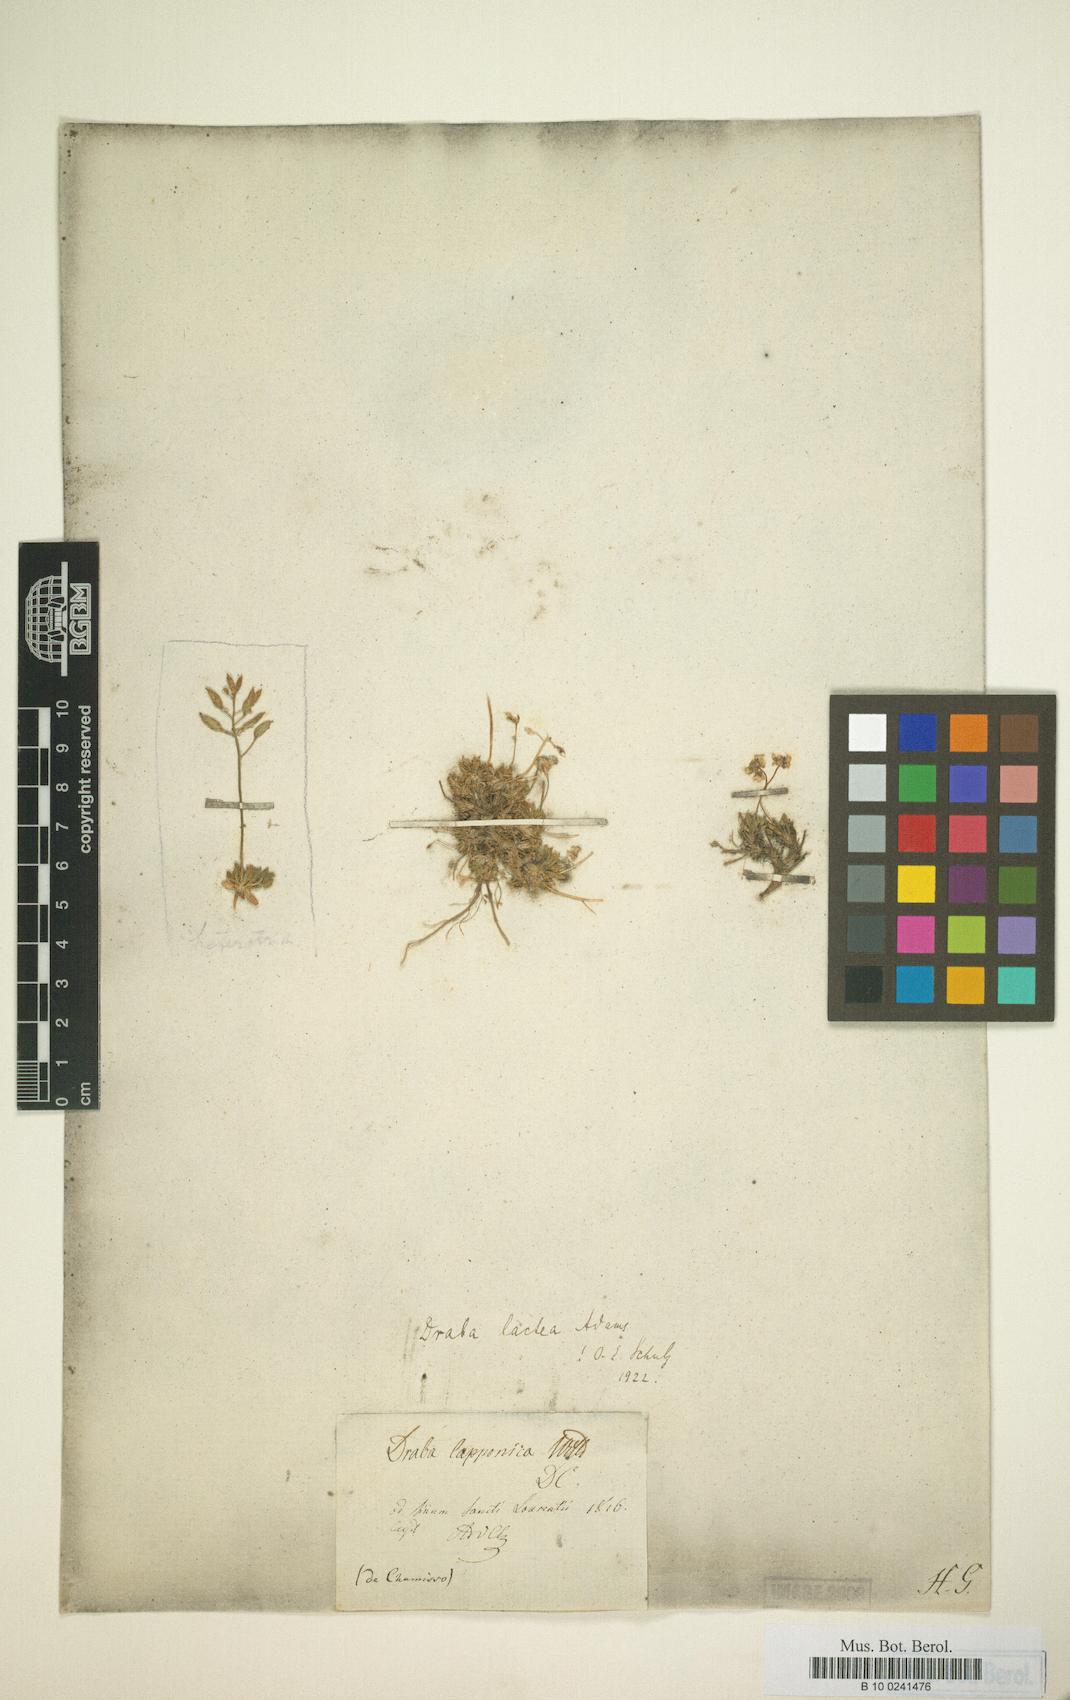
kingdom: Plantae
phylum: Tracheophyta
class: Magnoliopsida
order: Brassicales
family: Brassicaceae
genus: Draba
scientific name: Draba lactea
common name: Milky draba
